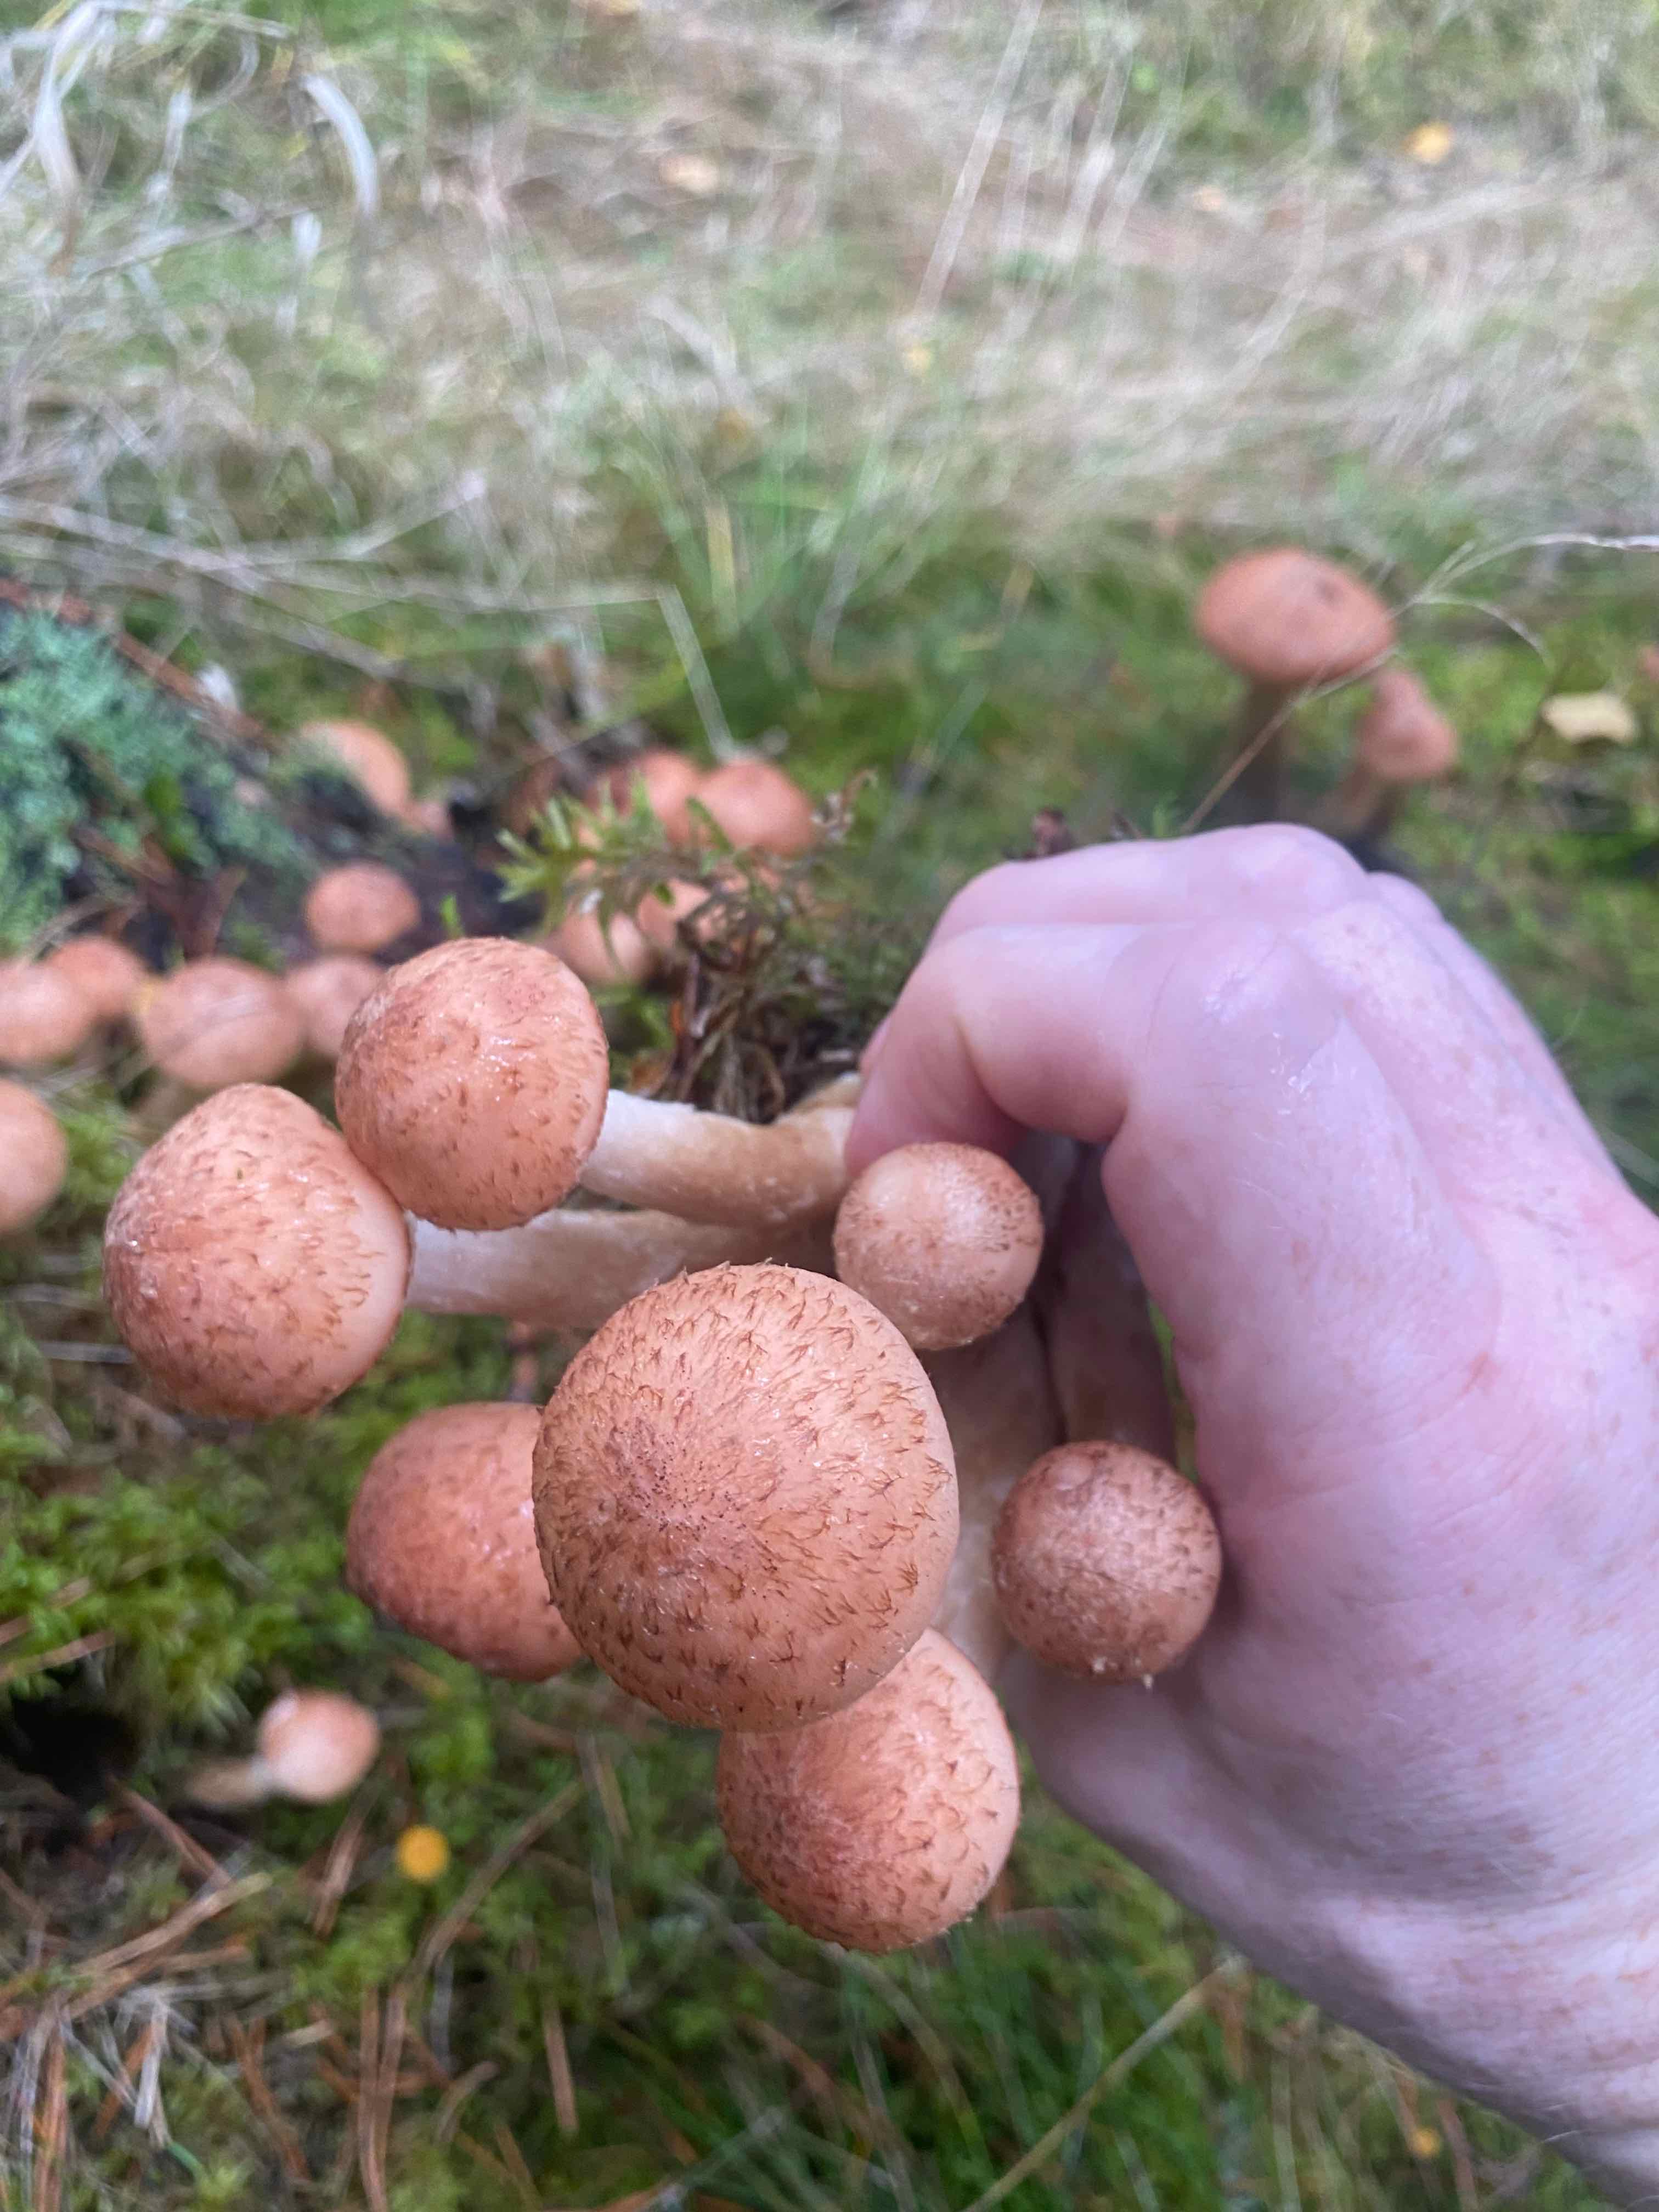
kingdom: Fungi
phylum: Basidiomycota
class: Agaricomycetes
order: Agaricales
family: Physalacriaceae
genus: Armillaria
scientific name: Armillaria ostoyae
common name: mørk honningsvamp
